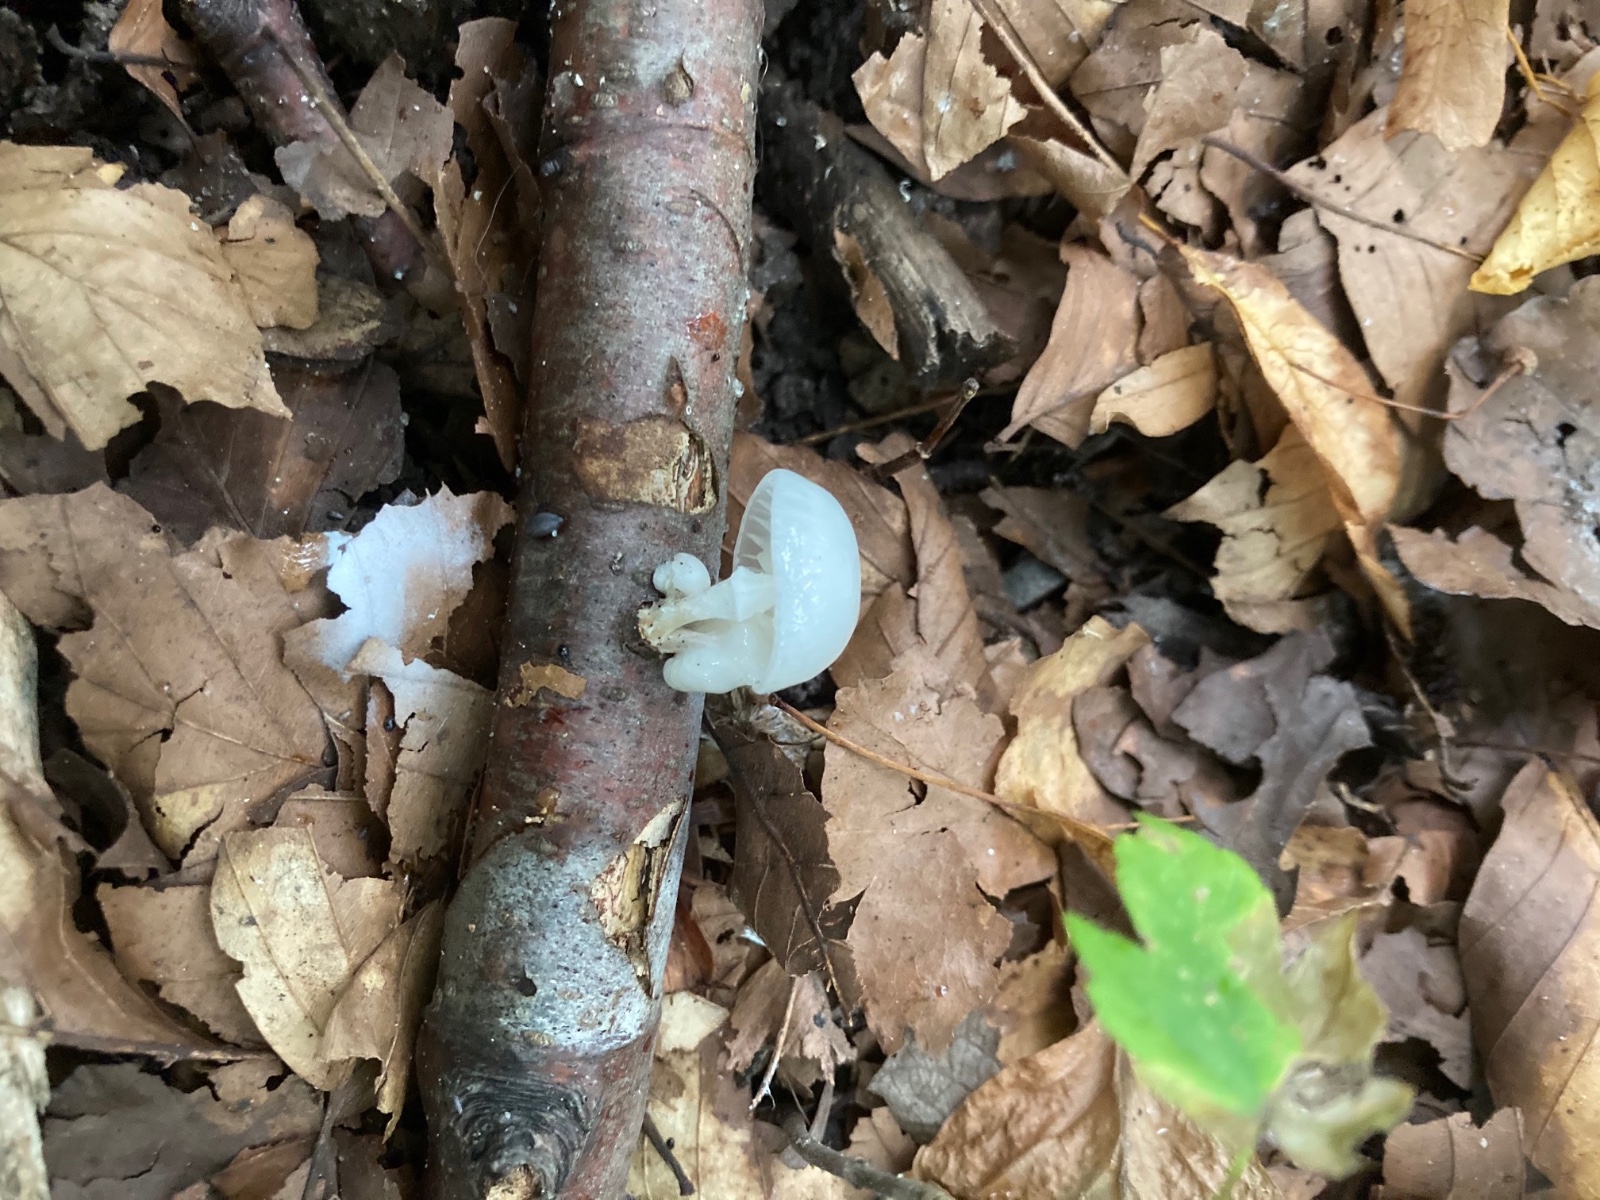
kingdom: Fungi
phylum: Basidiomycota
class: Agaricomycetes
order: Agaricales
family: Physalacriaceae
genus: Mucidula
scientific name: Mucidula mucida
